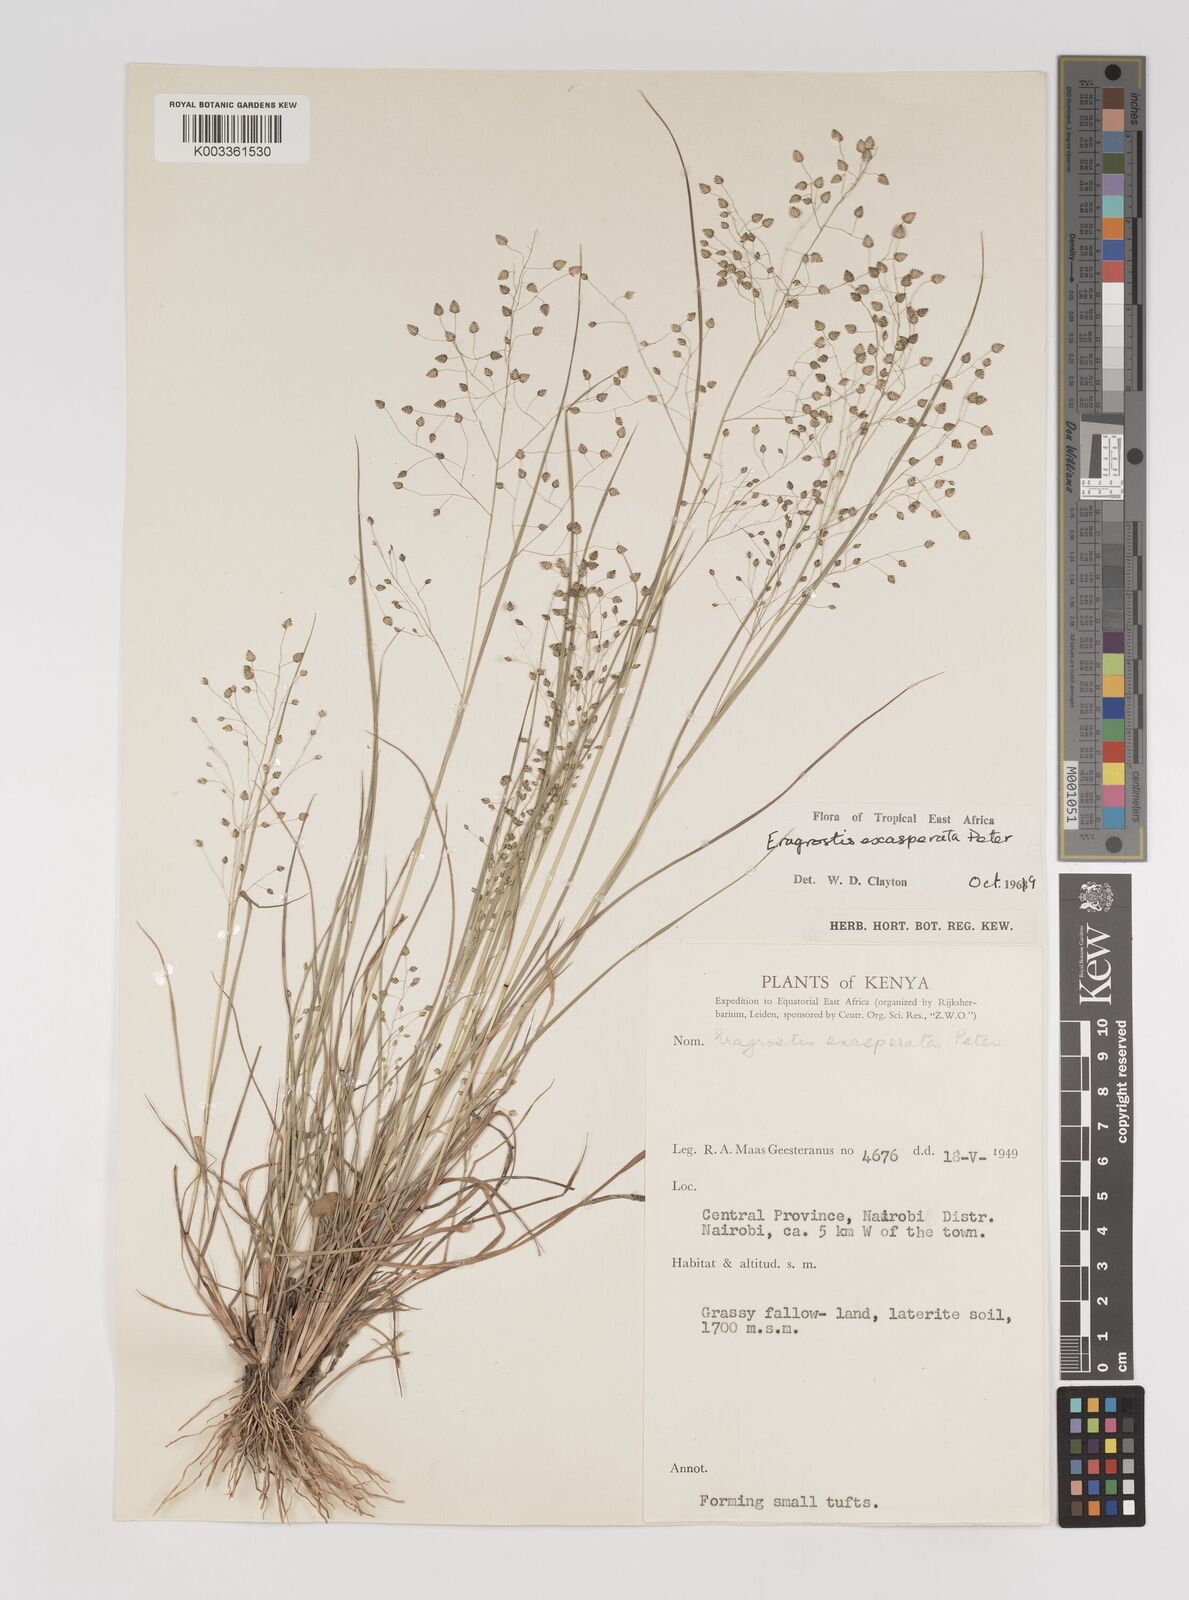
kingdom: Plantae
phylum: Tracheophyta
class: Liliopsida
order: Poales
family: Poaceae
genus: Eragrostis
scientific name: Eragrostis exasperata
